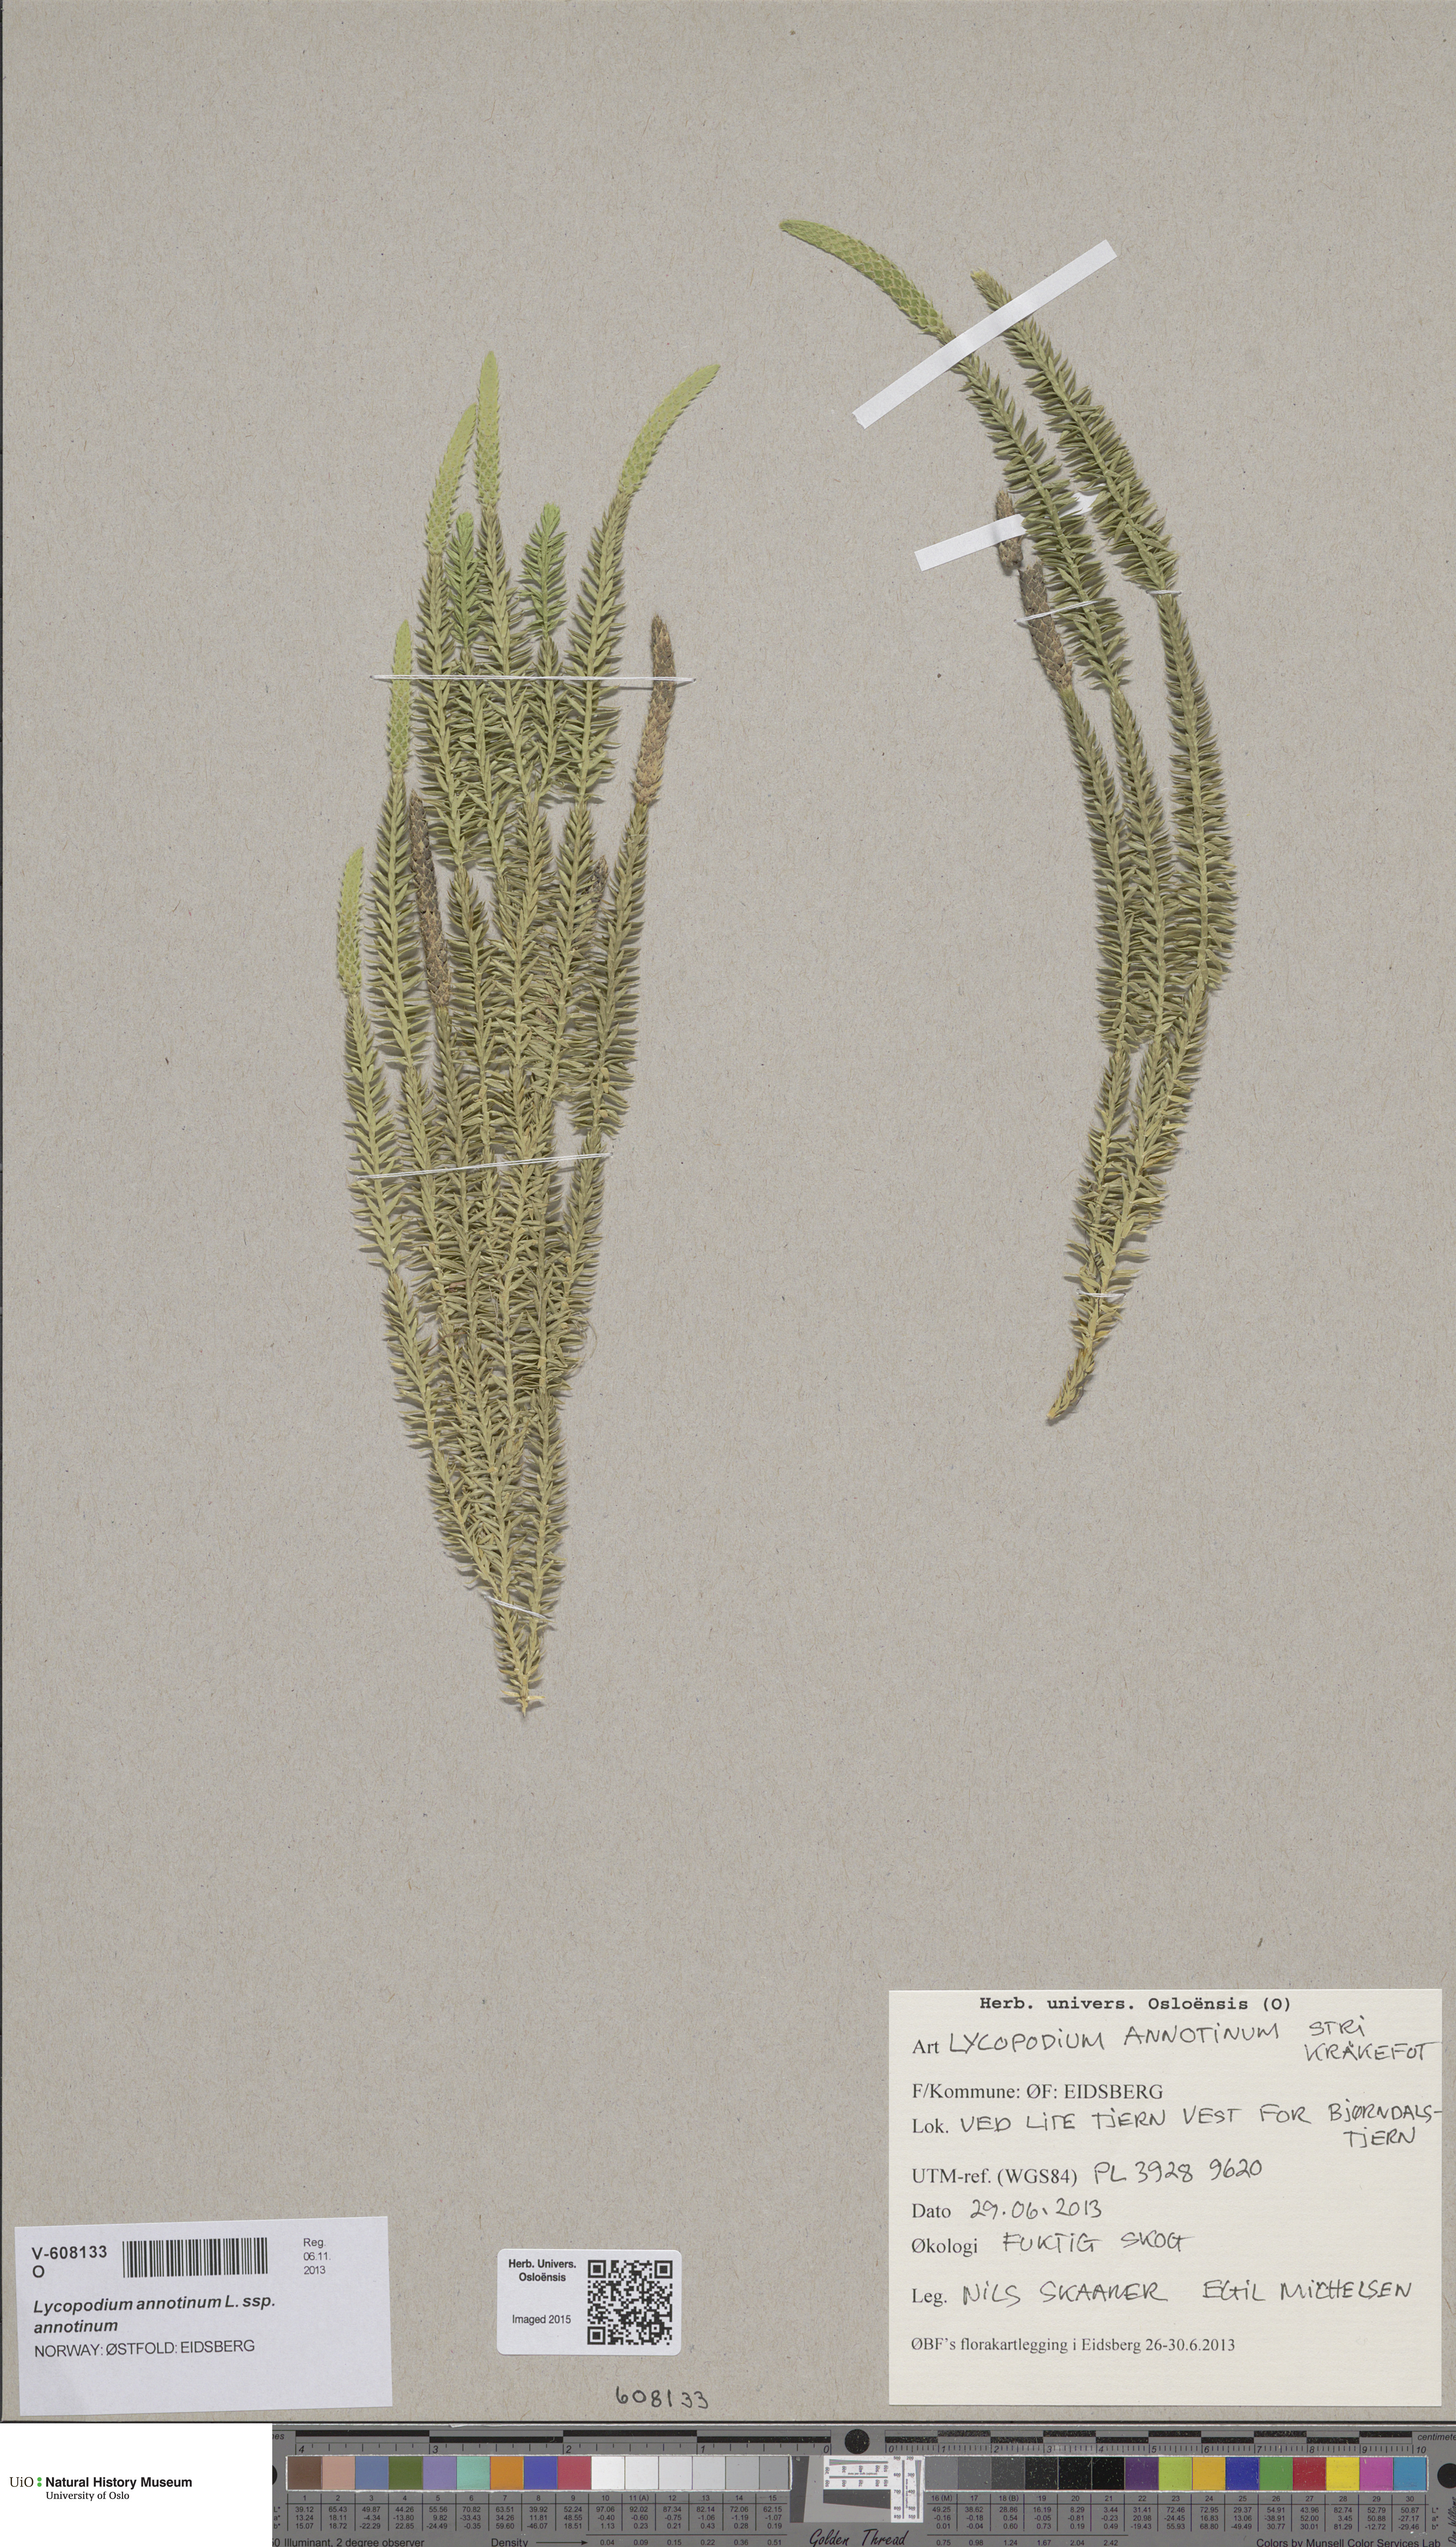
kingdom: Plantae
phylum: Tracheophyta
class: Lycopodiopsida
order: Lycopodiales
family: Lycopodiaceae
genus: Spinulum
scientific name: Spinulum annotinum
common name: Interrupted club-moss
